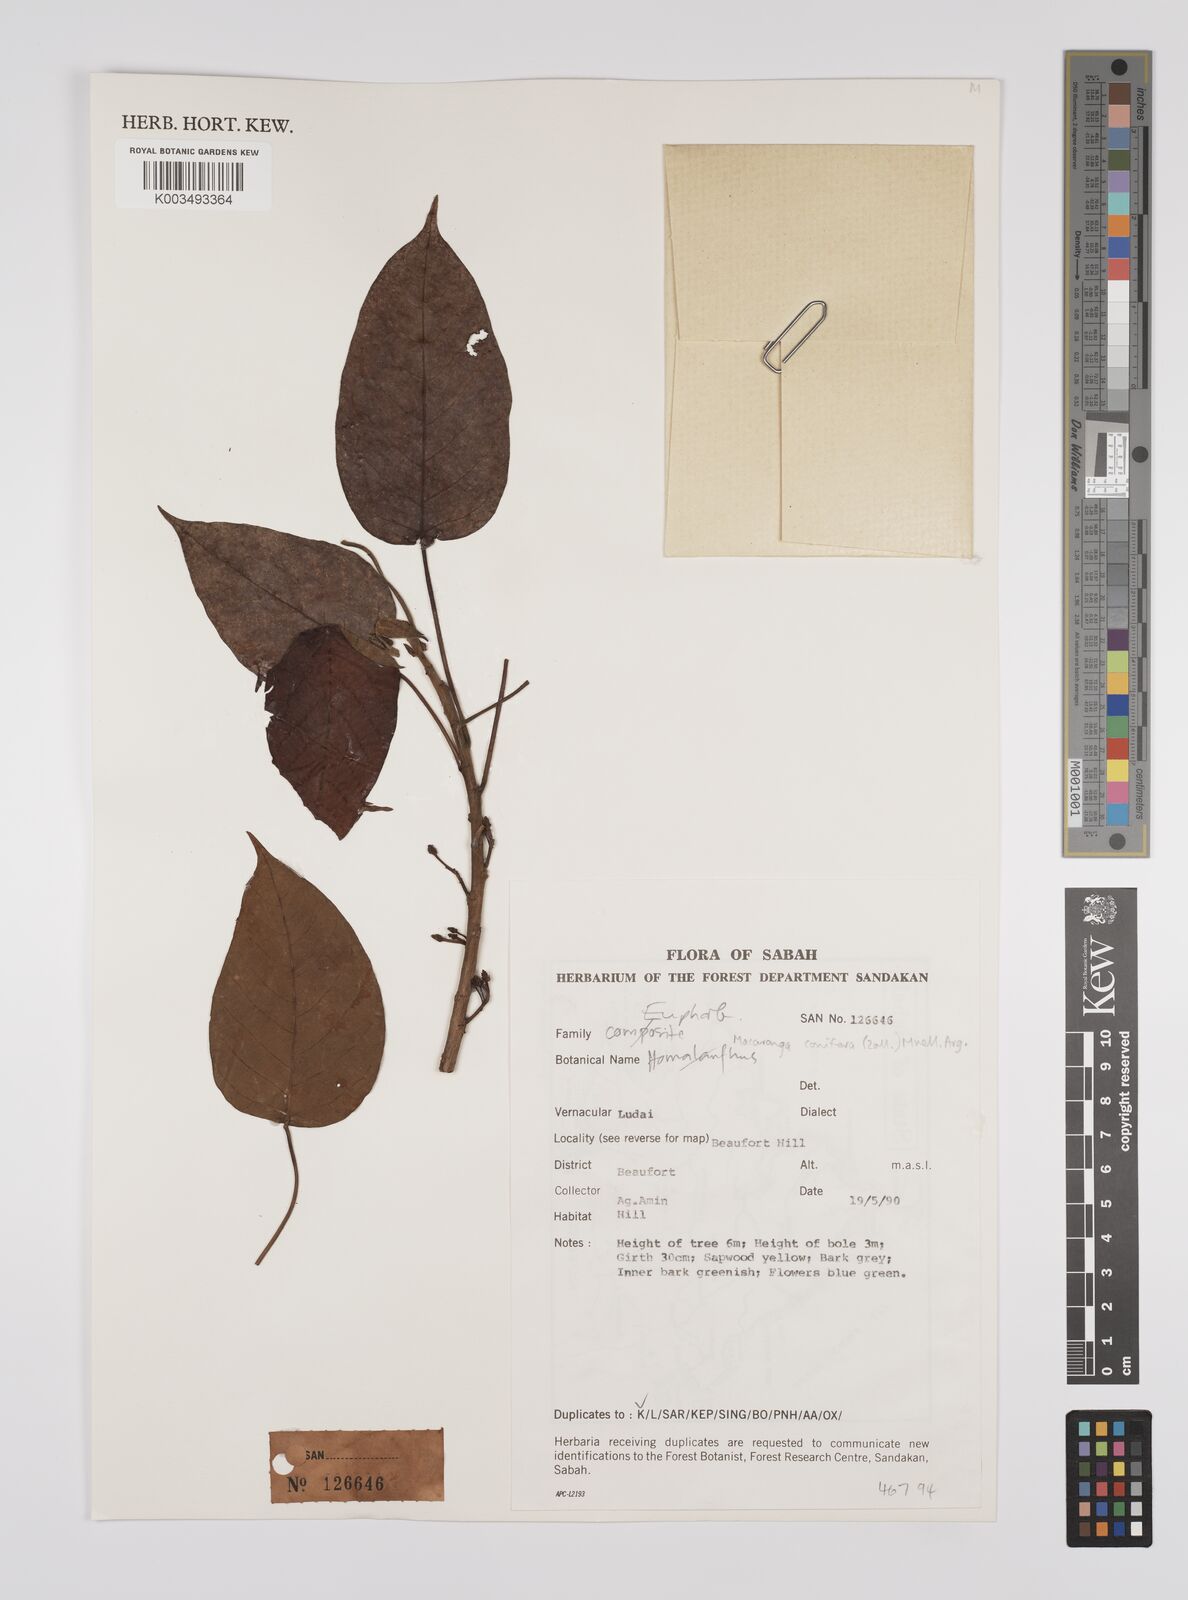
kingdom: Plantae
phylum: Tracheophyta
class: Magnoliopsida
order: Malpighiales
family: Euphorbiaceae
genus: Macaranga
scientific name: Macaranga conifera
